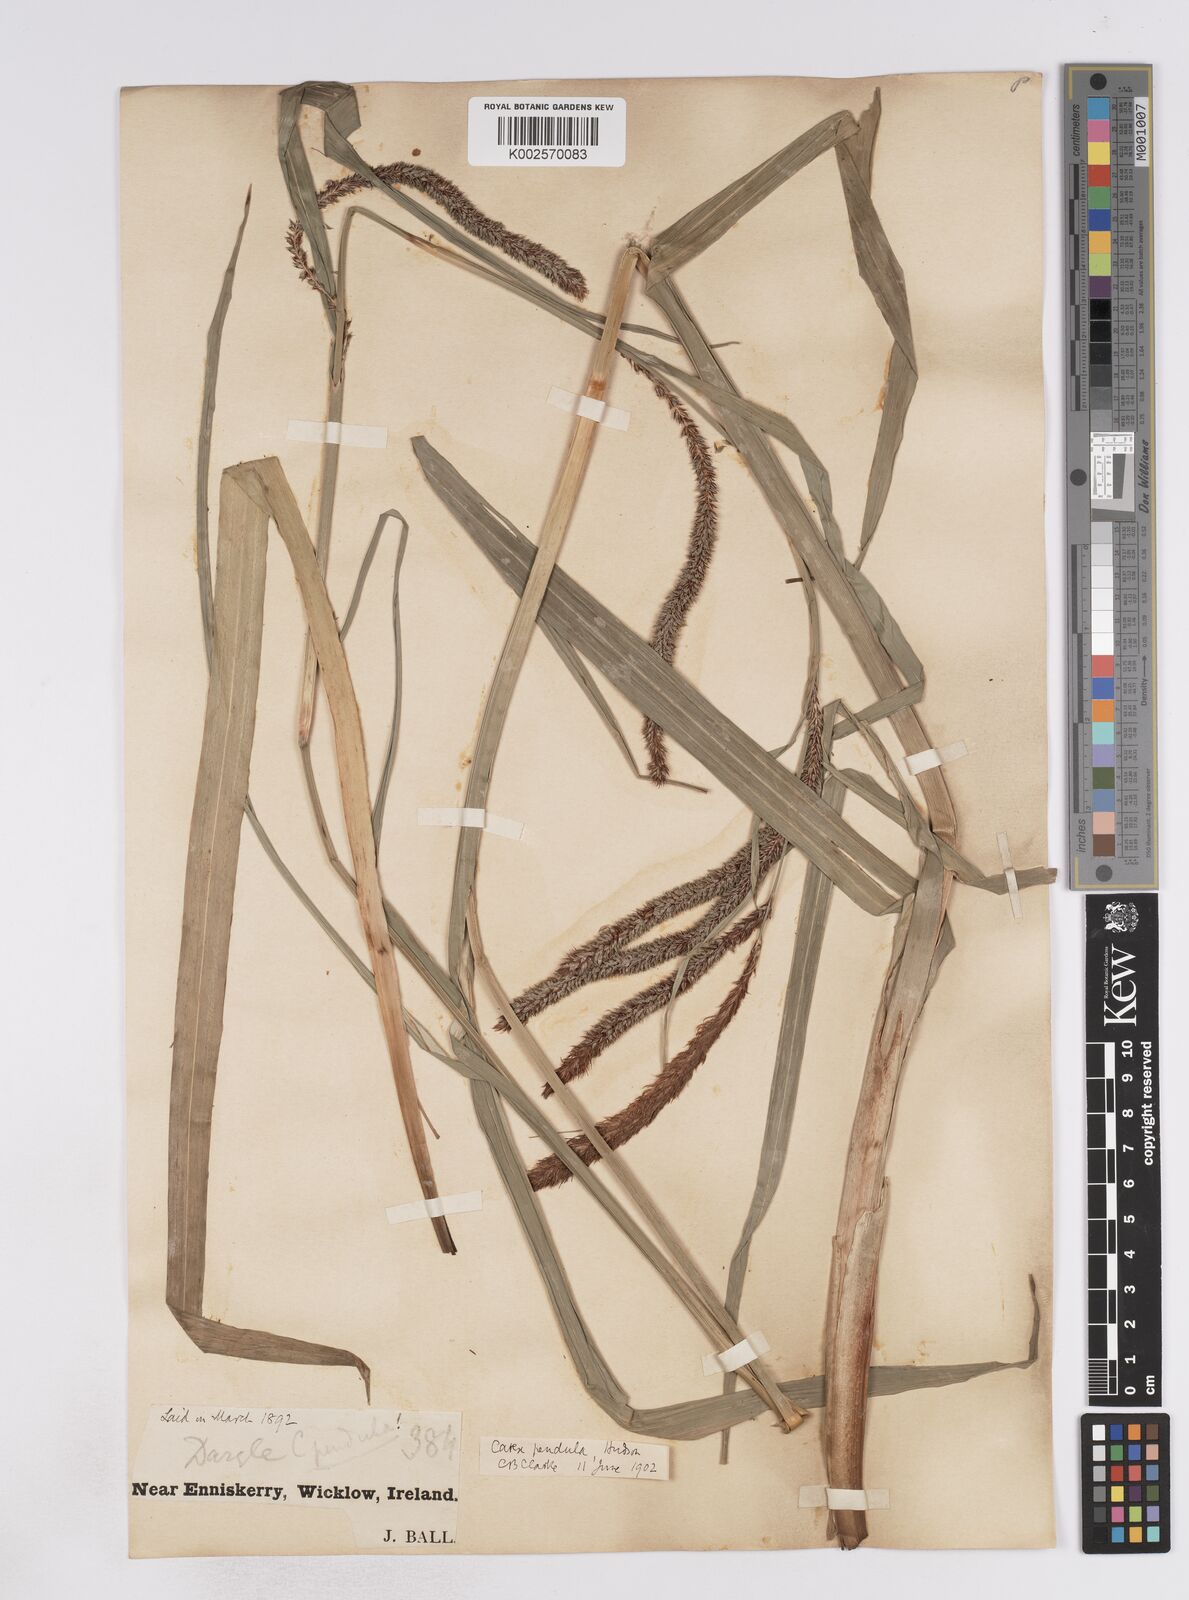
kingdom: Plantae
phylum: Tracheophyta
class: Liliopsida
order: Poales
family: Cyperaceae
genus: Carex
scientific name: Carex pendula
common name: Pendulous sedge
